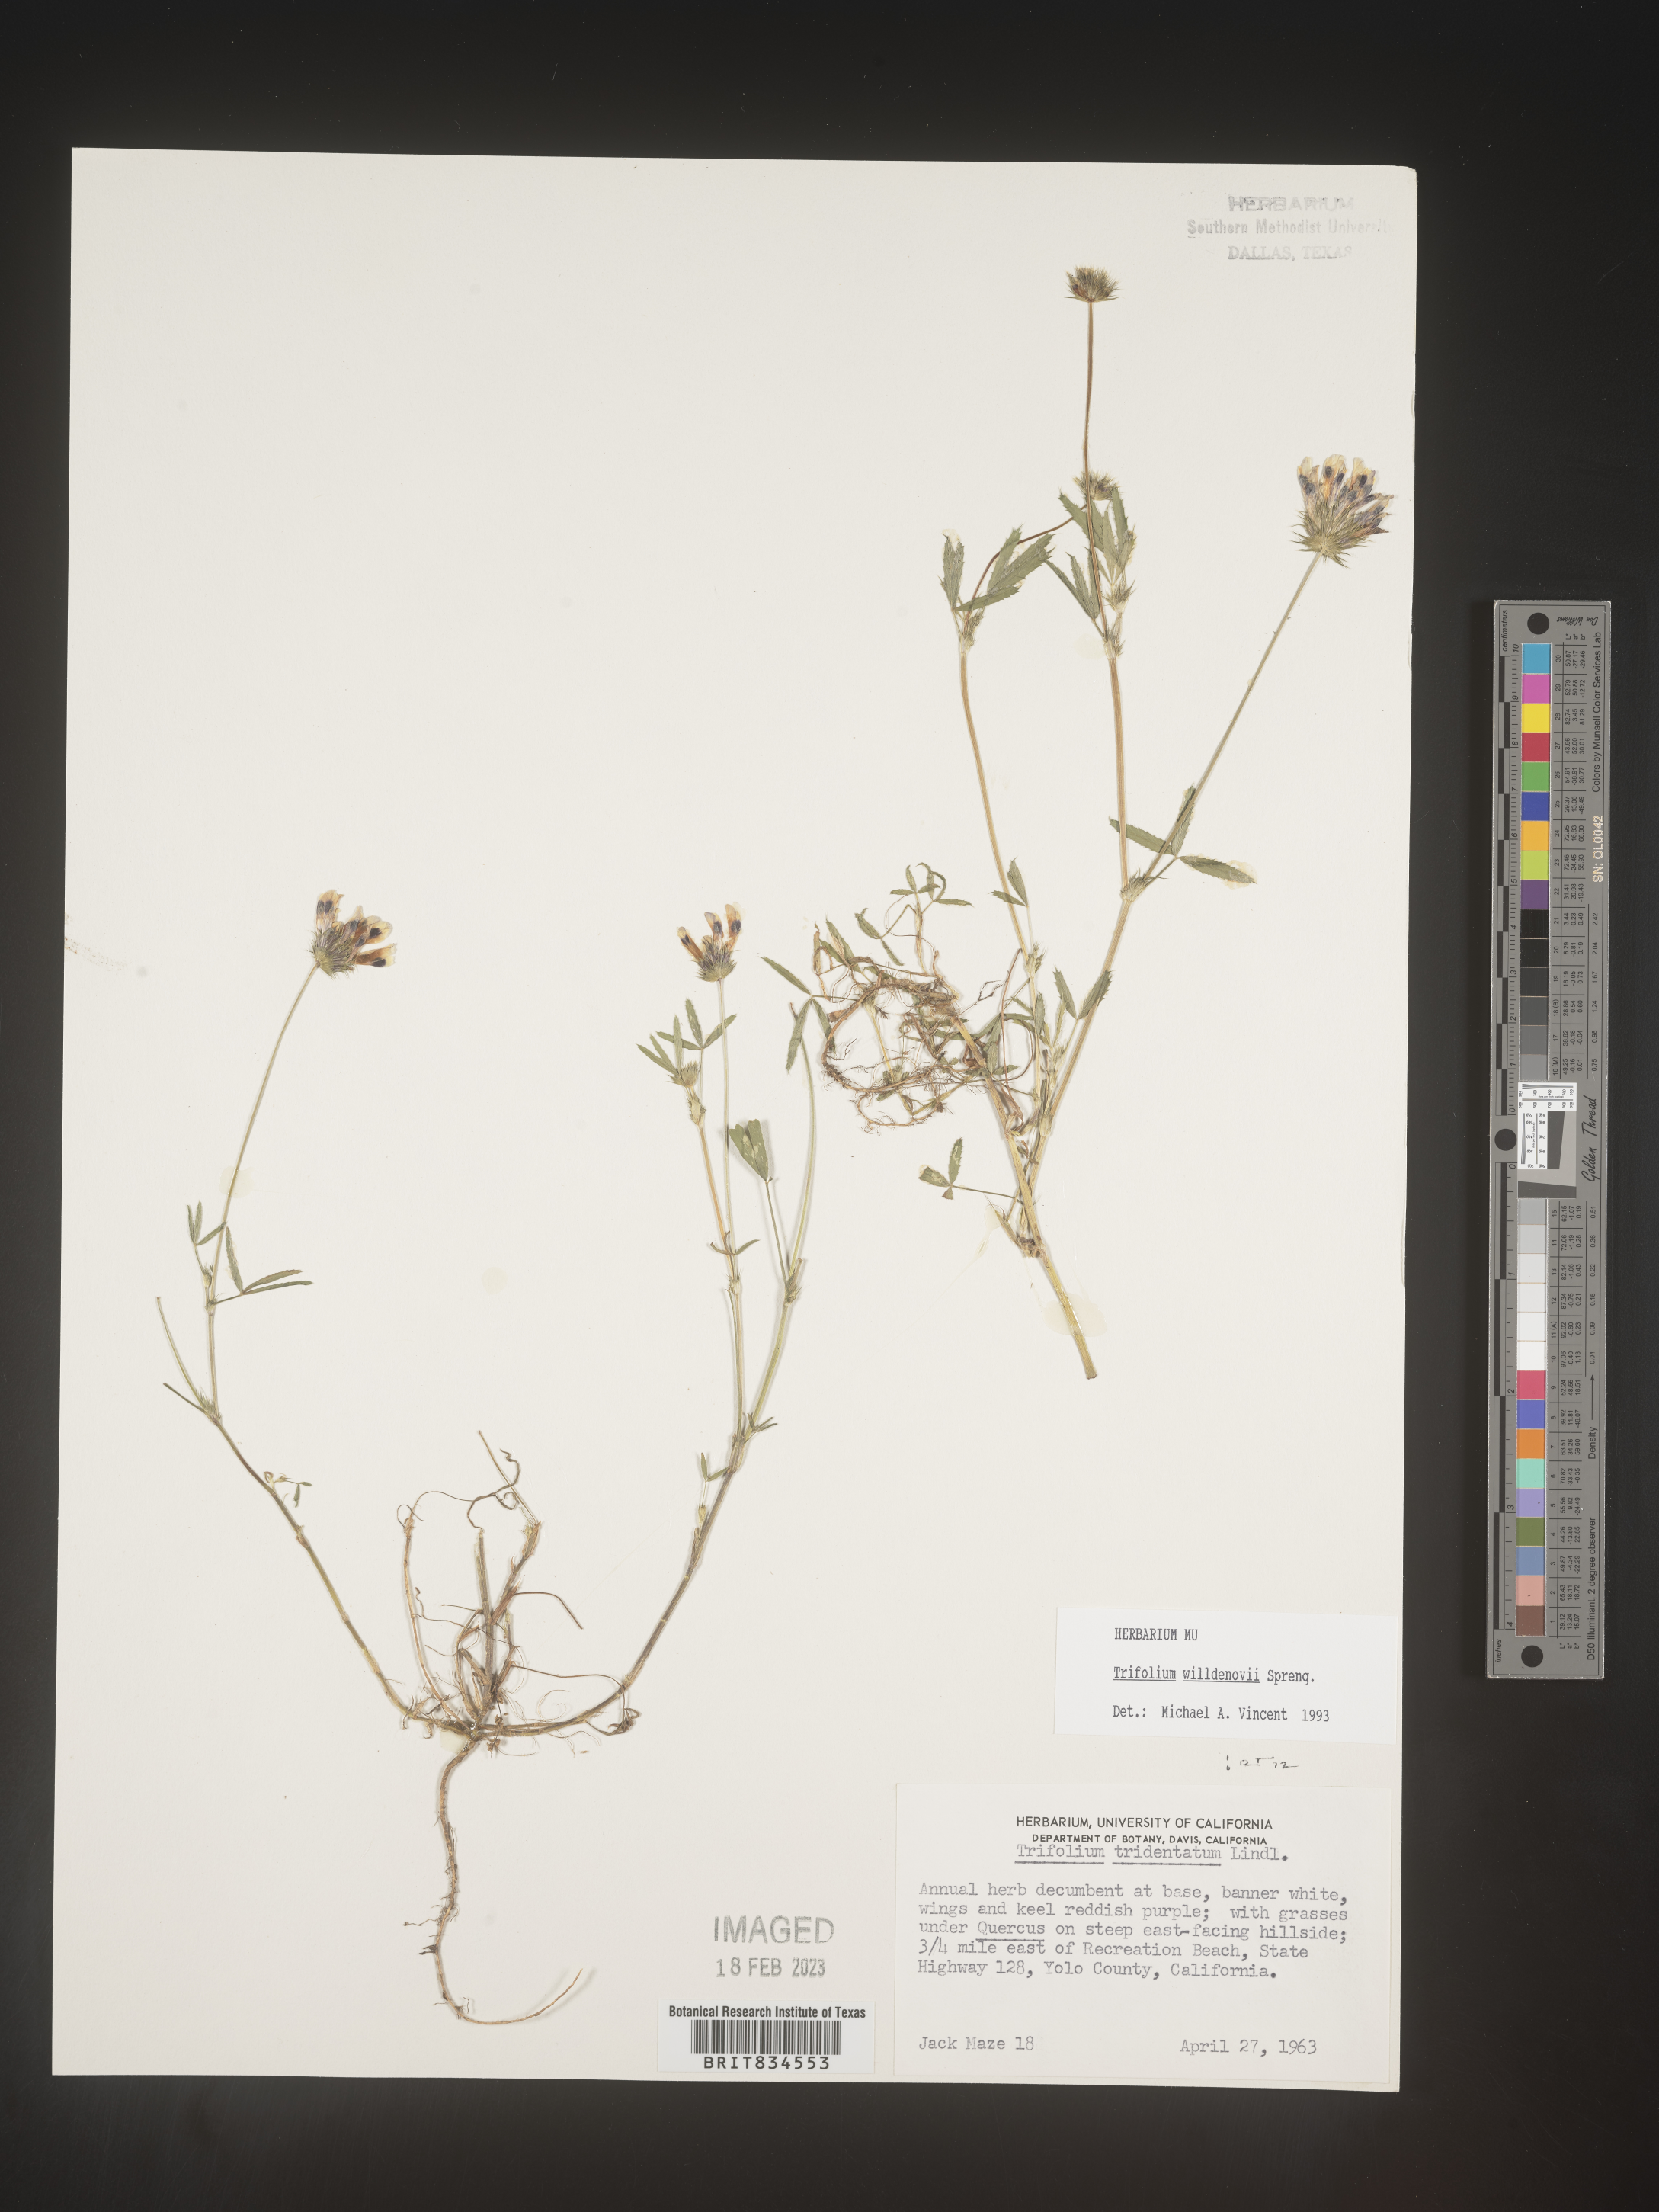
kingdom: Plantae
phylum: Tracheophyta
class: Magnoliopsida
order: Fabales
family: Fabaceae
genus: Trifolium
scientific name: Trifolium
